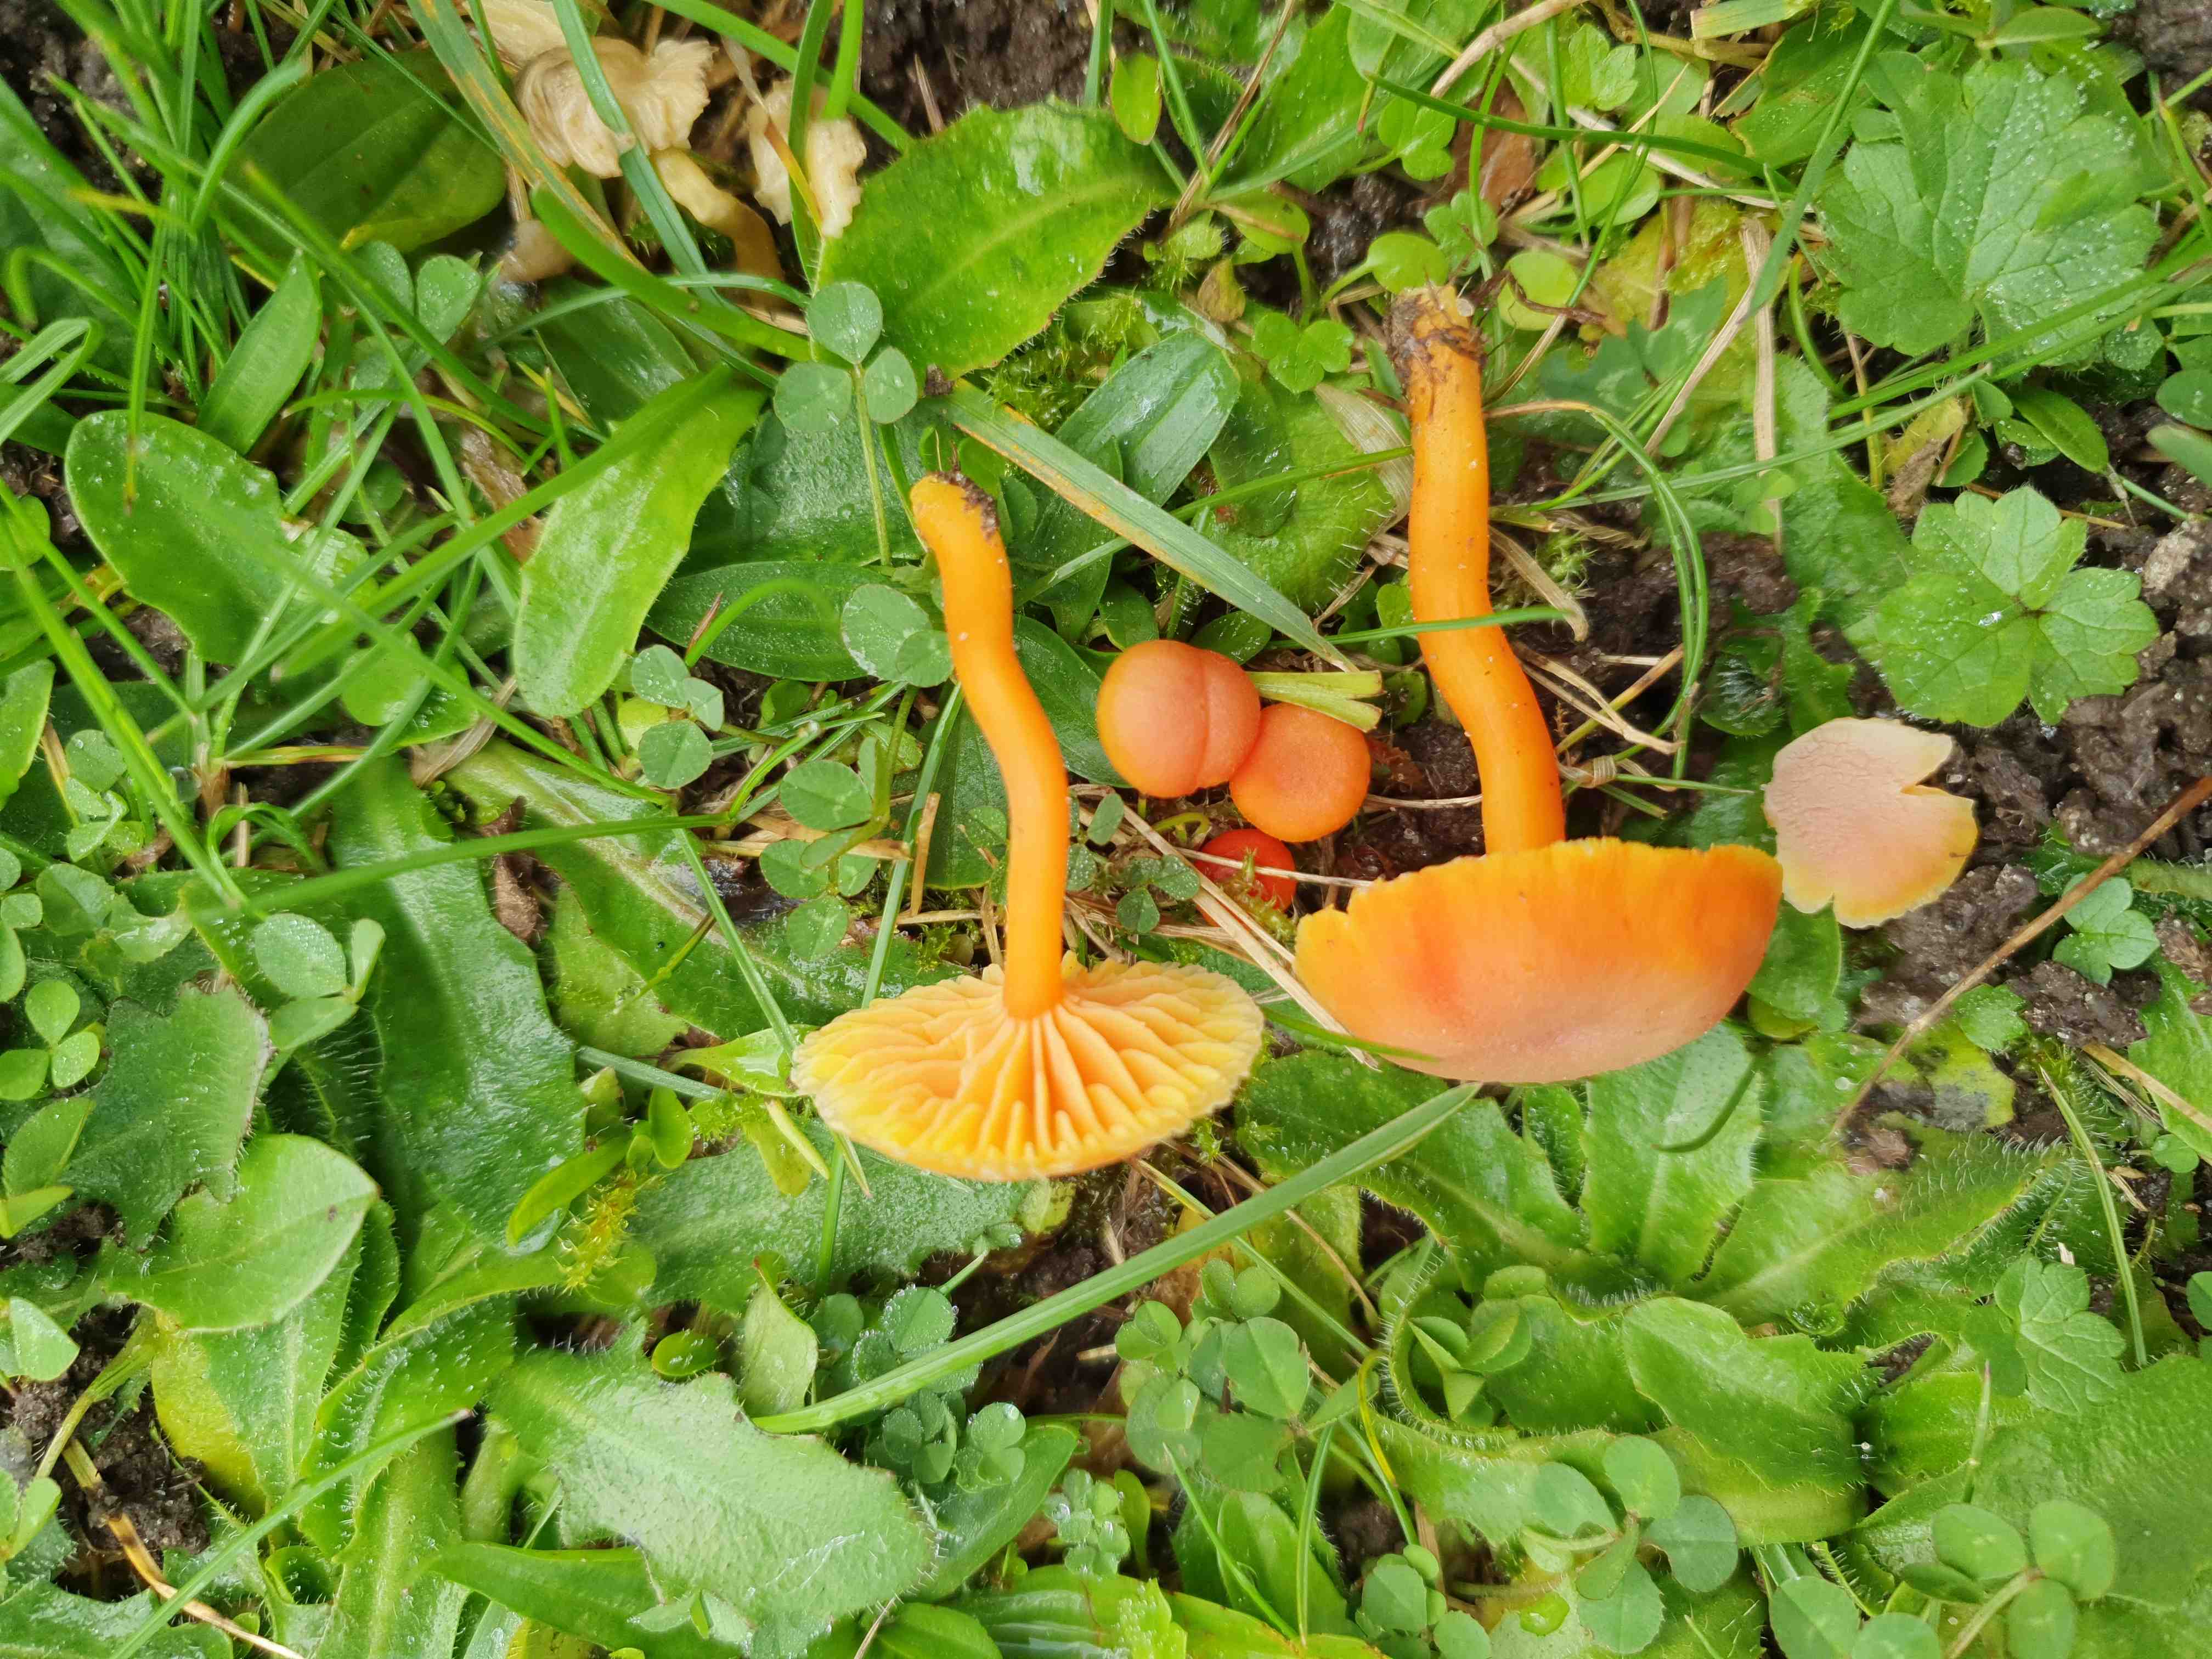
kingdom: Fungi
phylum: Basidiomycota
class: Agaricomycetes
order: Agaricales
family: Hygrophoraceae
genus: Hygrocybe
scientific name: Hygrocybe miniata
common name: mønje-vokshat
